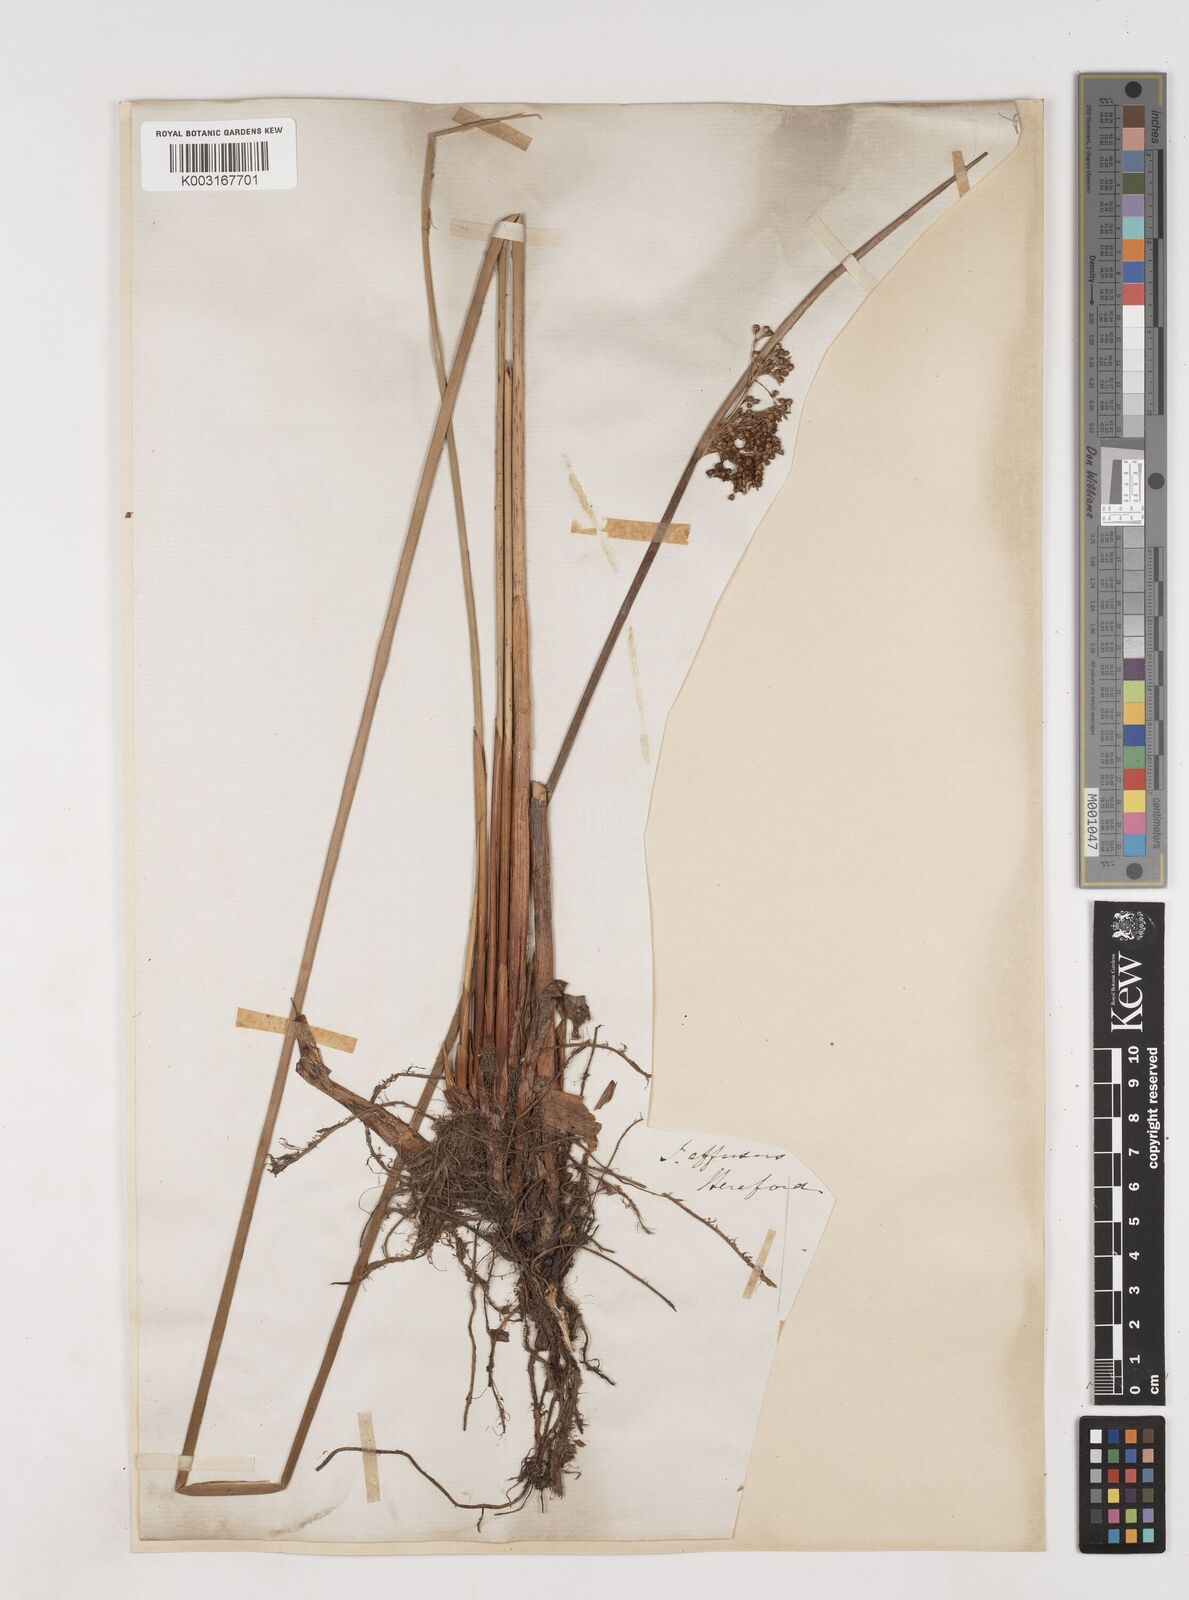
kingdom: Plantae
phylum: Tracheophyta
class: Liliopsida
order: Poales
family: Juncaceae
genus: Juncus
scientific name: Juncus effusus
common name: Soft rush
